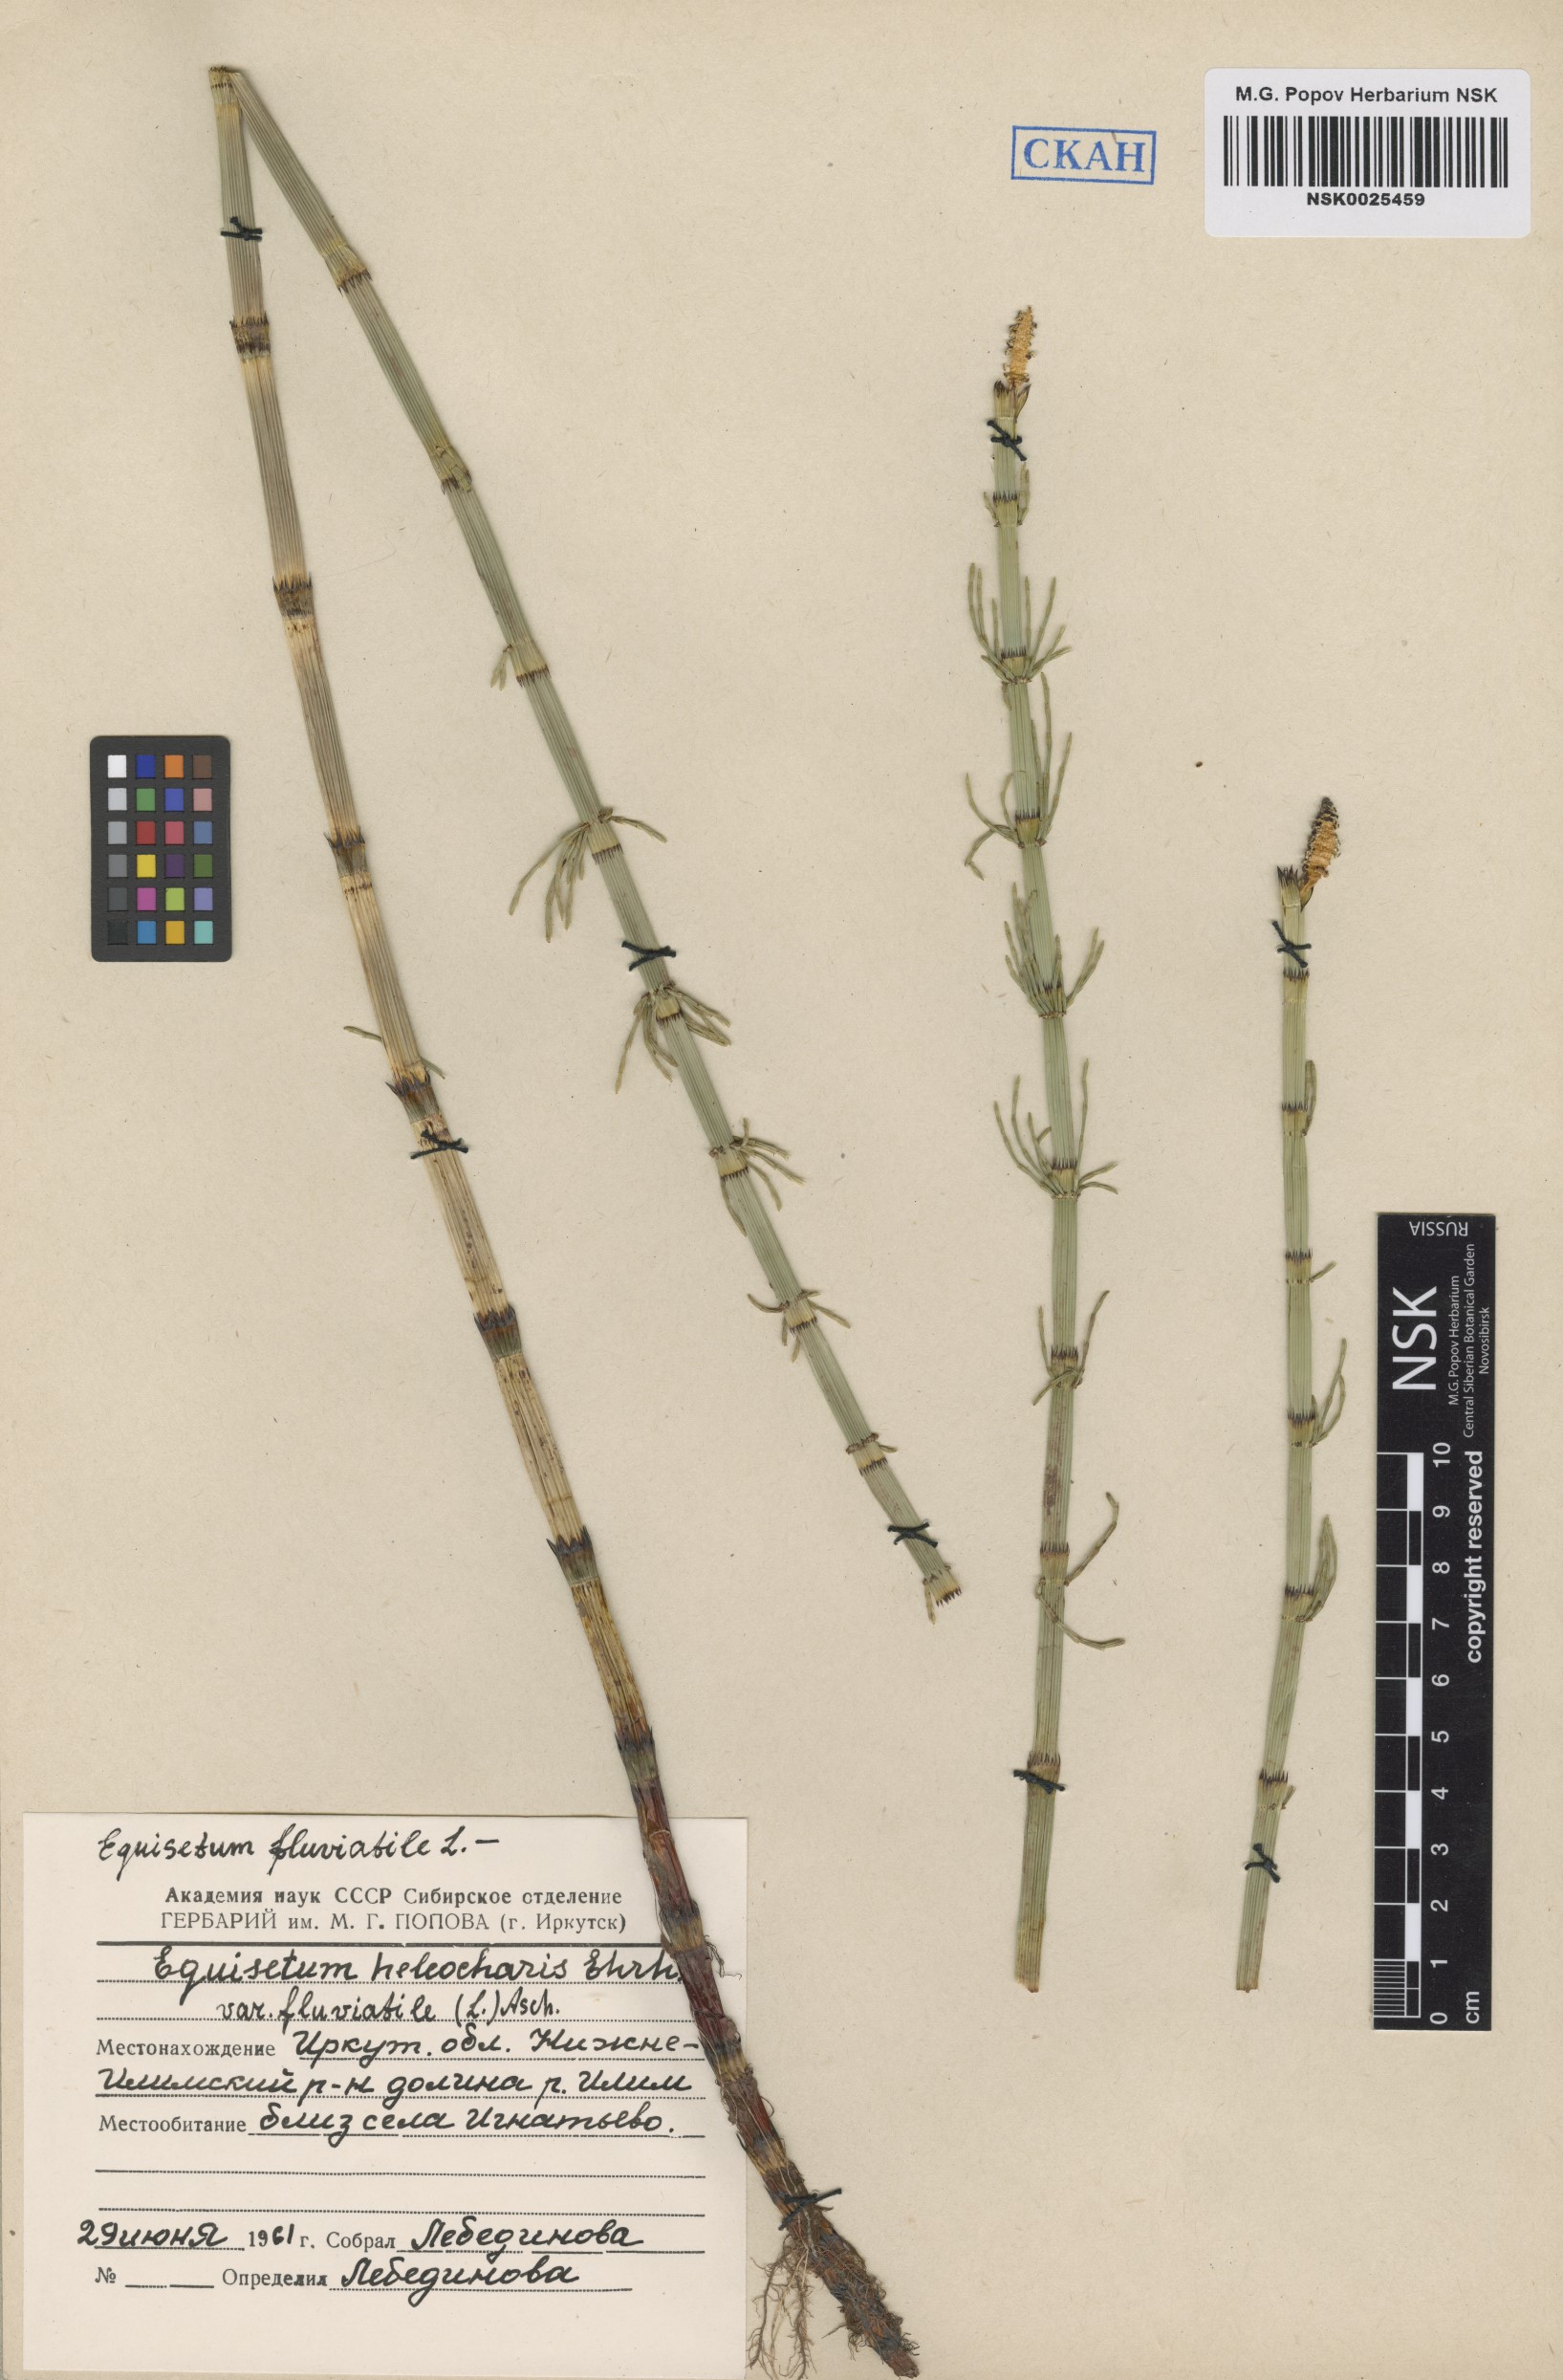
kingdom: Plantae
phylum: Tracheophyta
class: Polypodiopsida
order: Equisetales
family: Equisetaceae
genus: Equisetum
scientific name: Equisetum fluviatile
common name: Water horsetail
